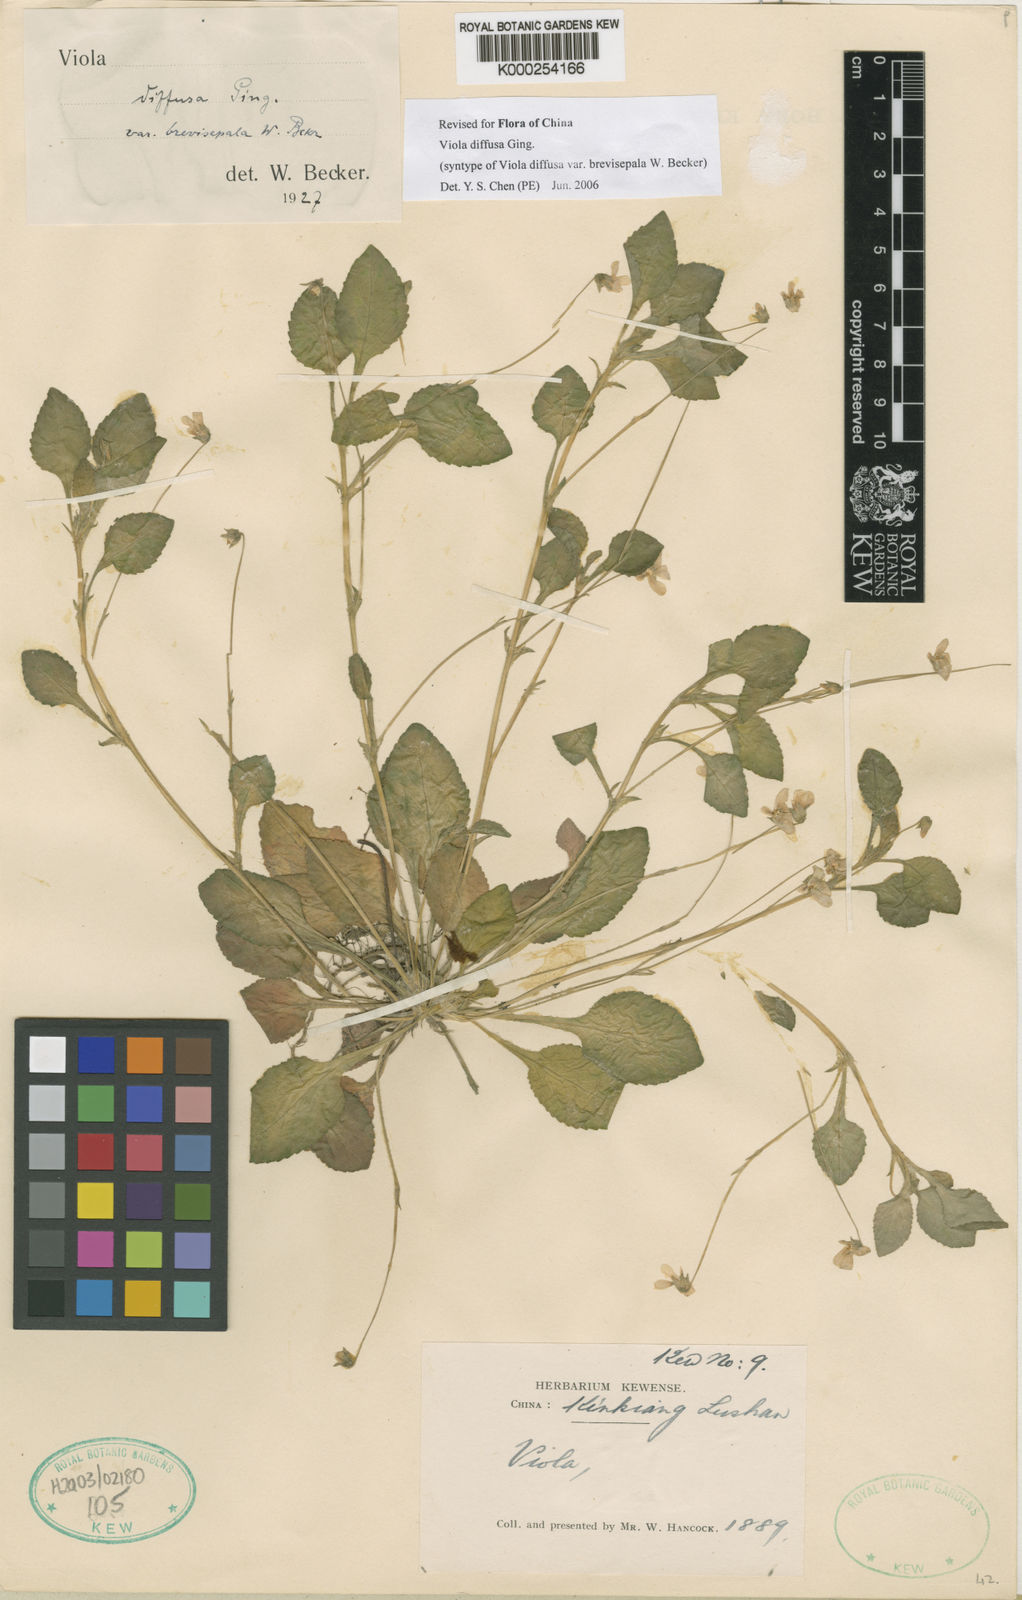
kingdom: Plantae
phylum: Tracheophyta
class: Magnoliopsida
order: Malpighiales
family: Violaceae
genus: Viola
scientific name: Viola diffusa
